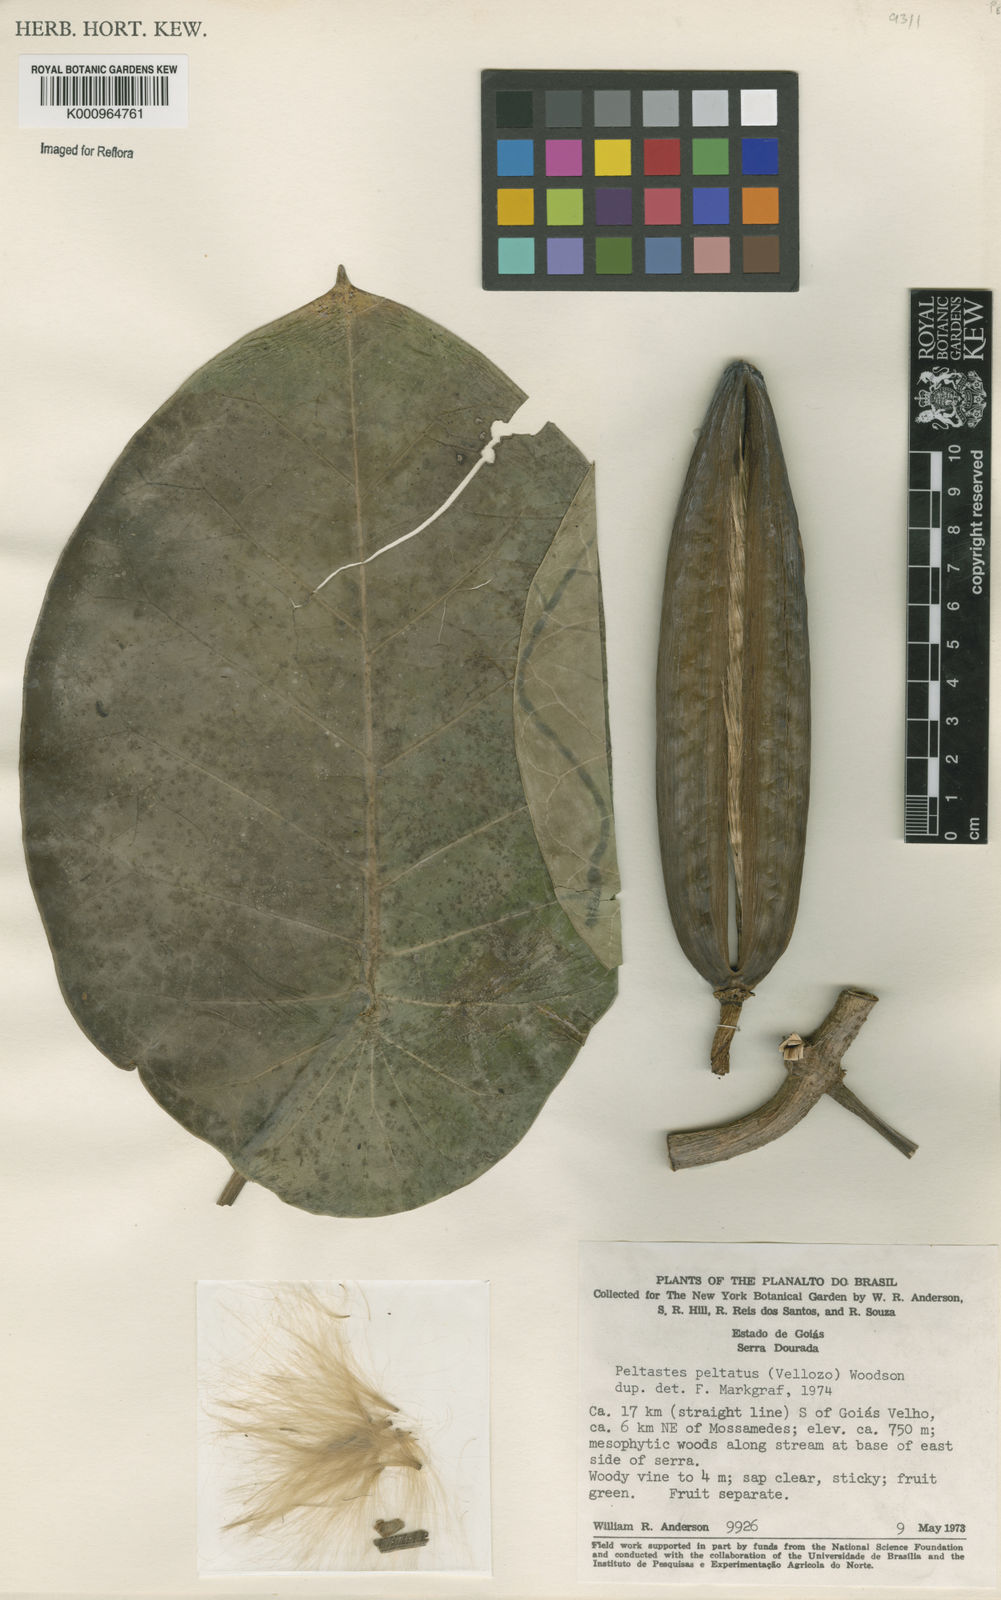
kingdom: Plantae
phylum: Tracheophyta
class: Magnoliopsida
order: Gentianales
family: Apocynaceae
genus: Macropharynx
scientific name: Macropharynx peltata
